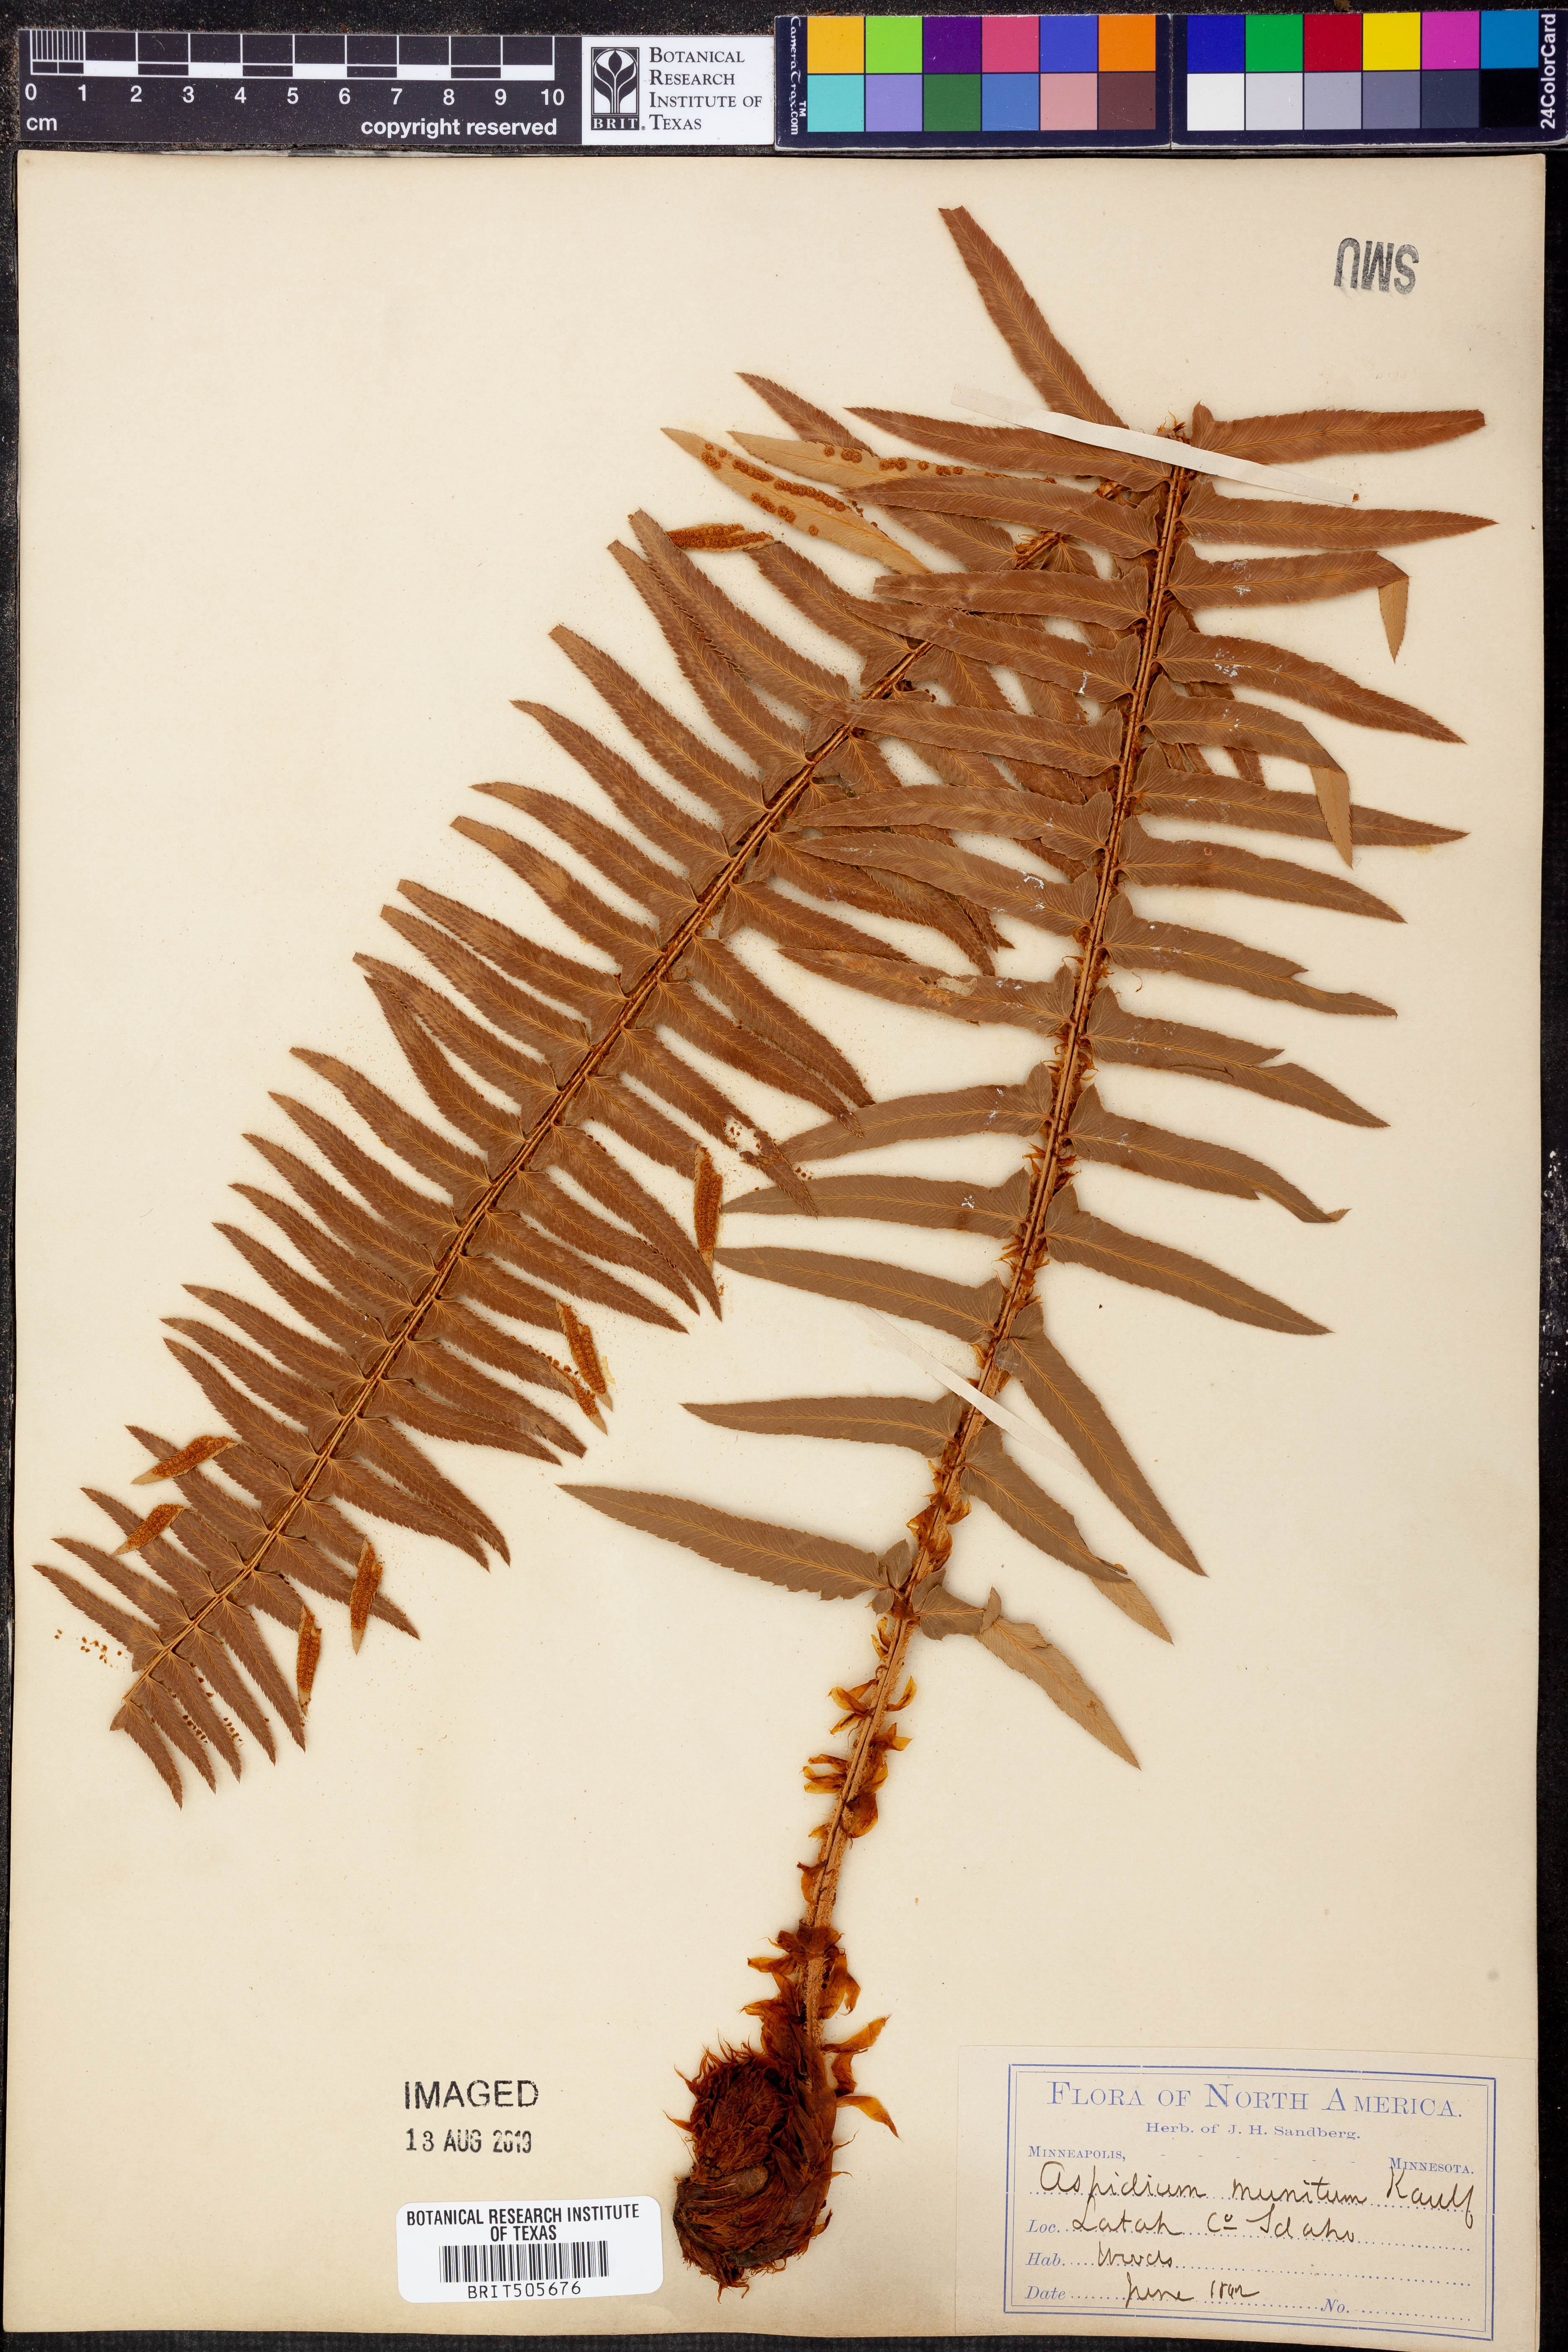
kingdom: Plantae
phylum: Tracheophyta
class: Polypodiopsida
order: Polypodiales
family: Dryopteridaceae
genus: Polystichum
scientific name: Polystichum munitum
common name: Western sword-fern
